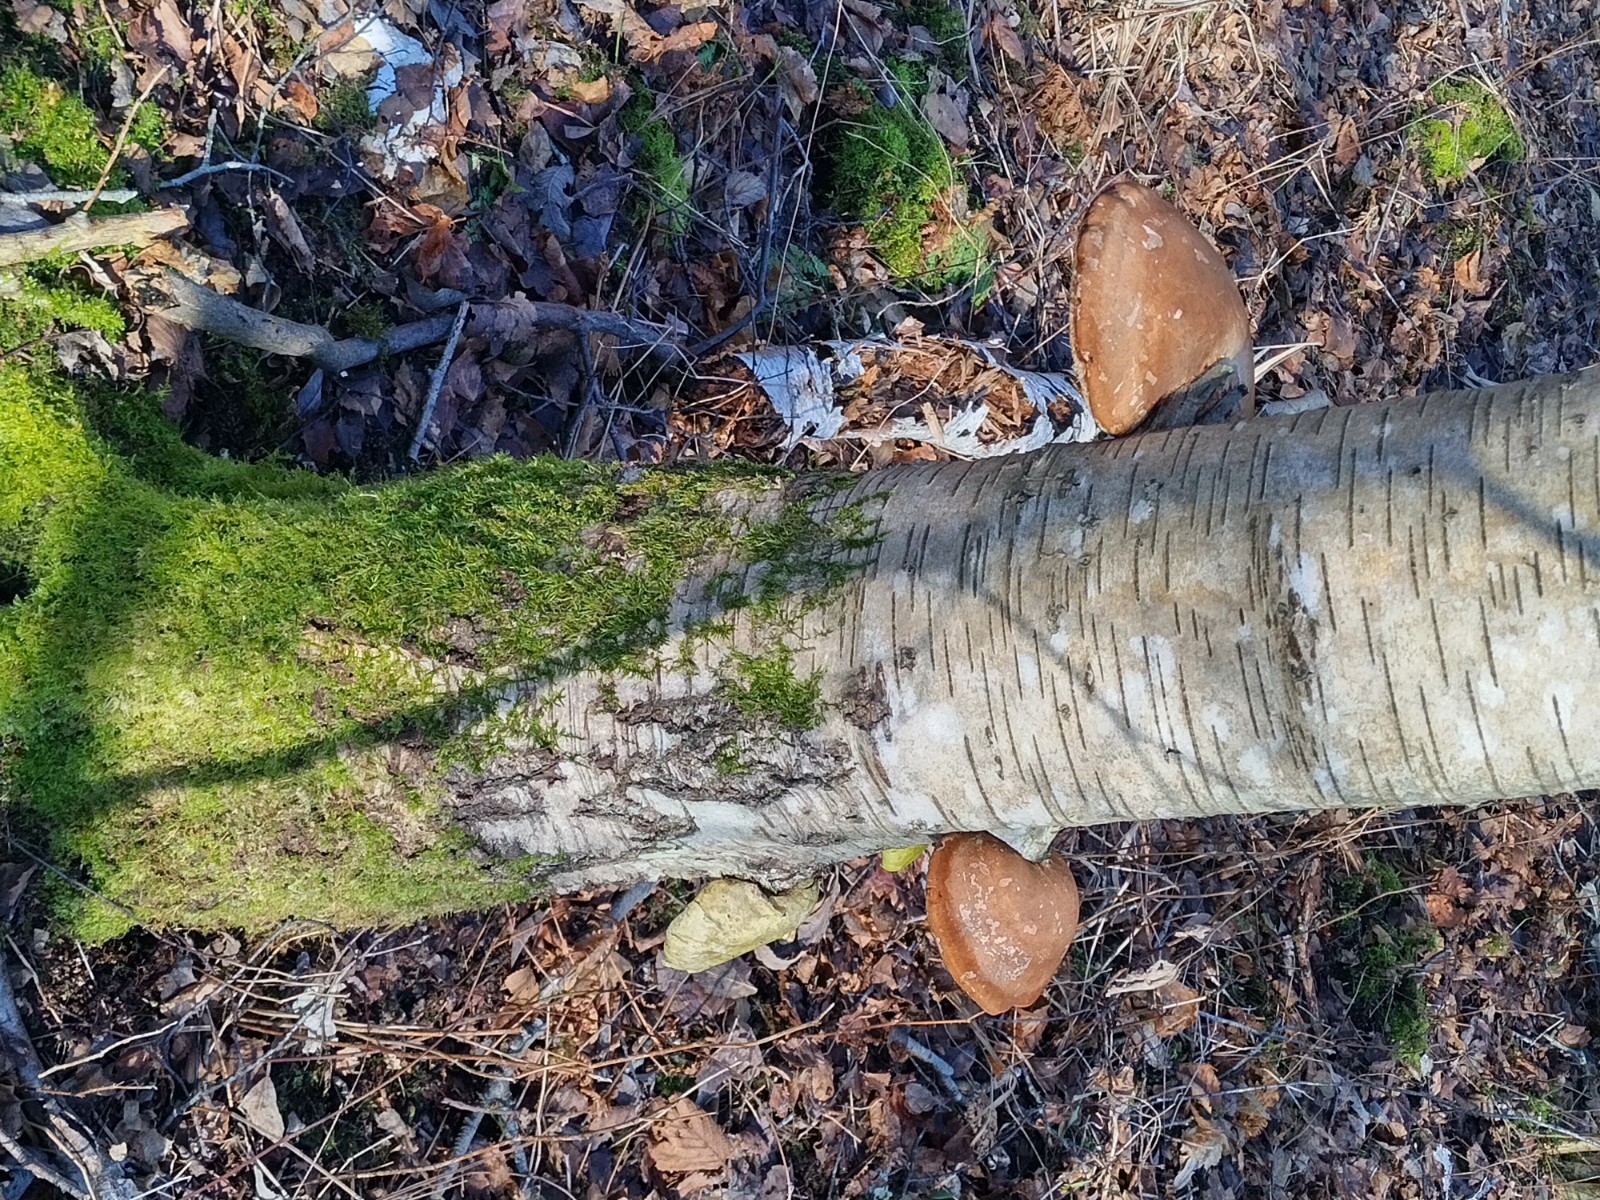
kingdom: Fungi
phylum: Basidiomycota
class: Agaricomycetes
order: Polyporales
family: Fomitopsidaceae
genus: Fomitopsis
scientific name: Fomitopsis betulina
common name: birkeporesvamp
